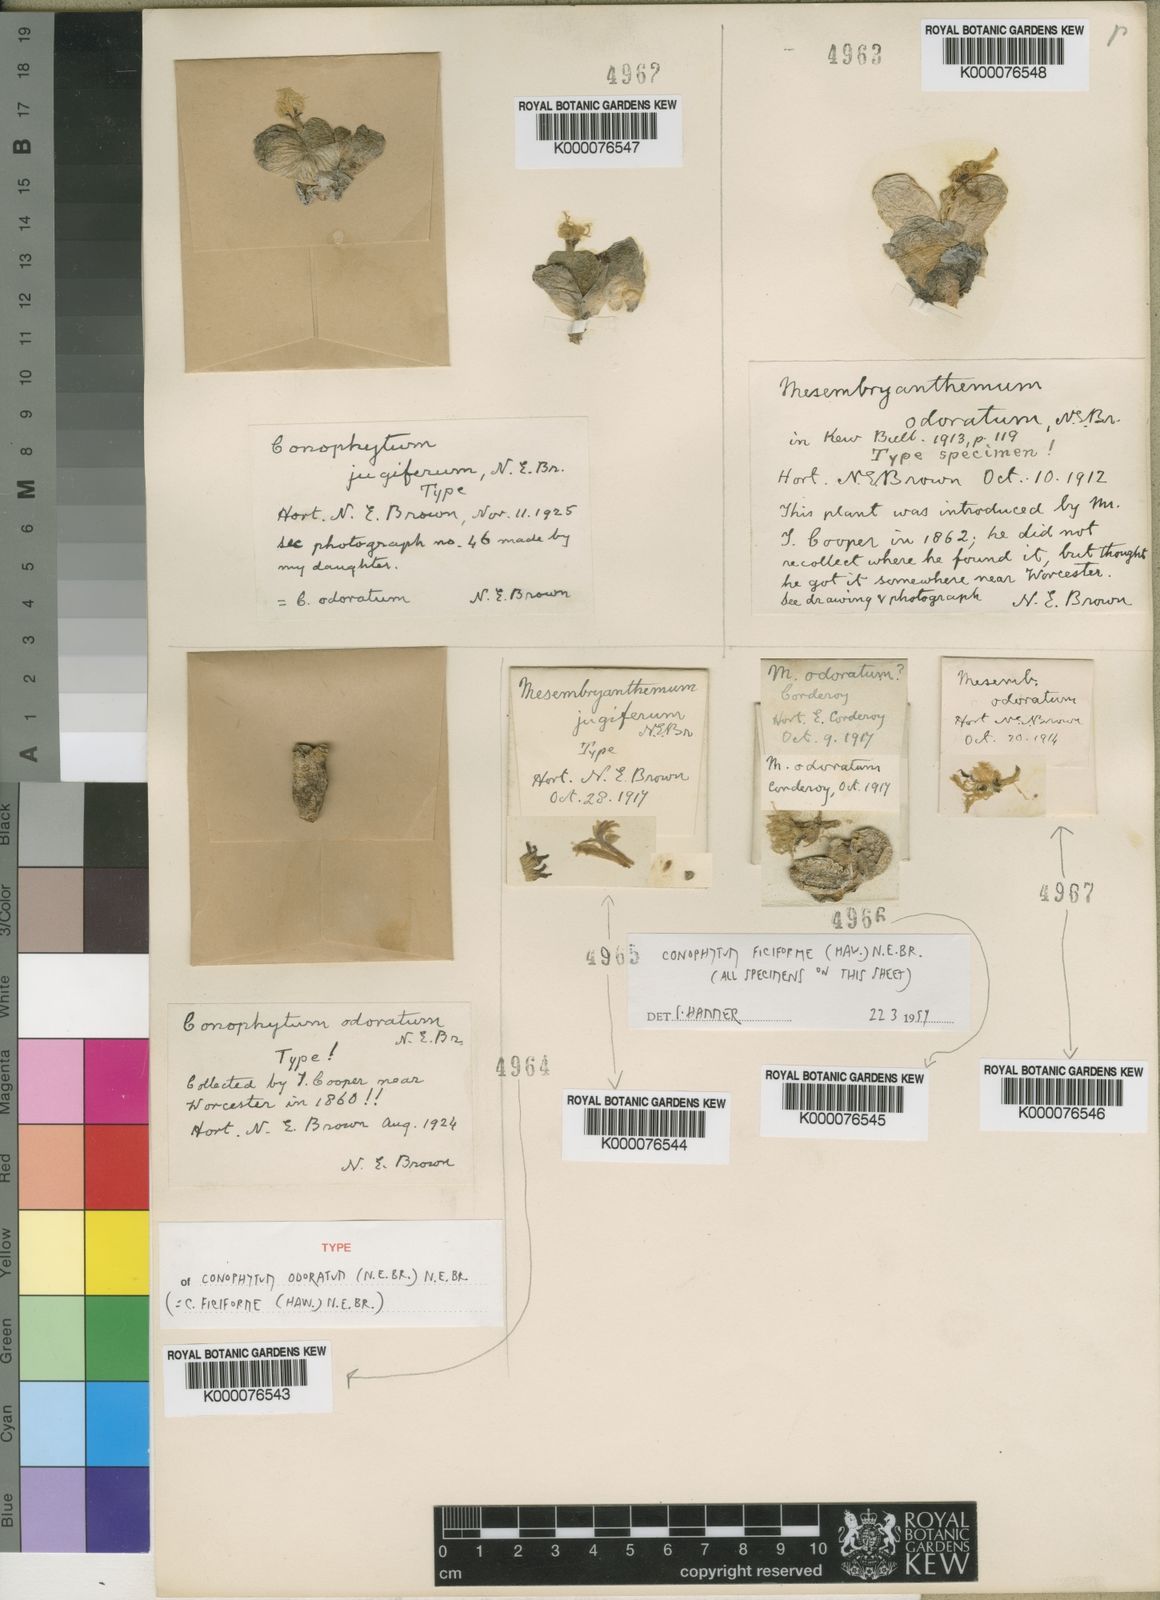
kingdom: Plantae
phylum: Tracheophyta
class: Magnoliopsida
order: Caryophyllales
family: Aizoaceae
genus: Conophytum
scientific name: Conophytum ficiforme
